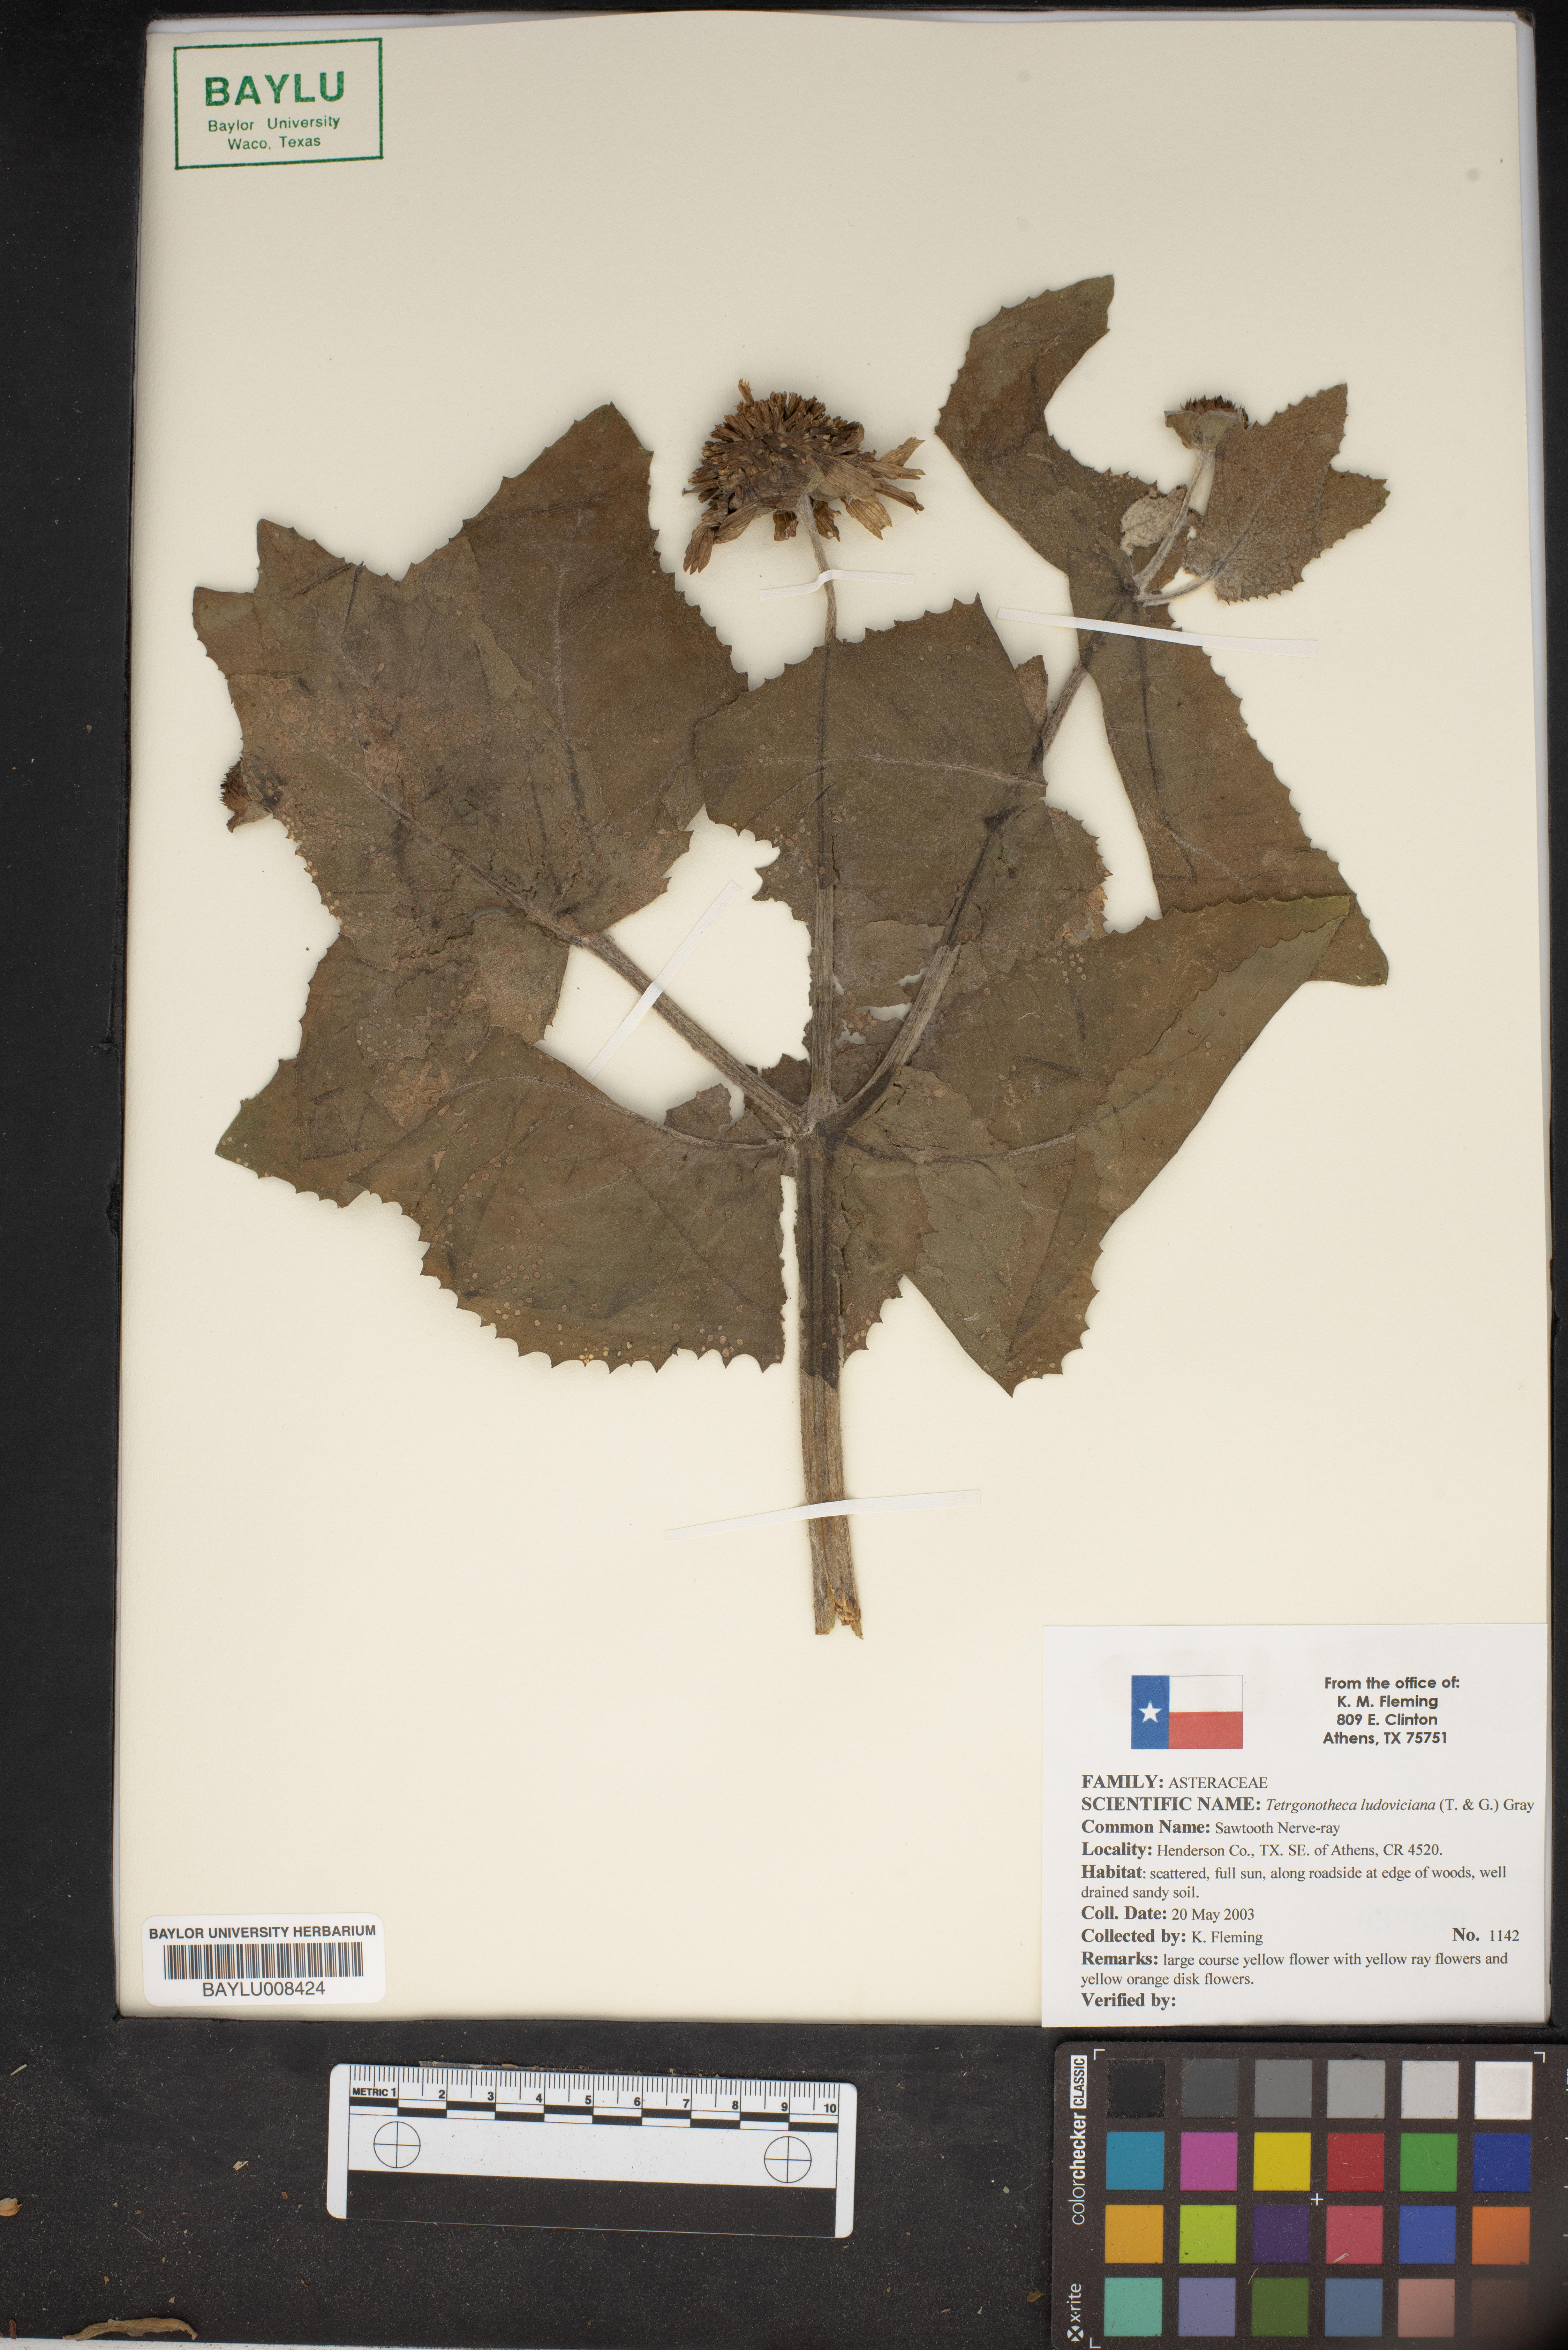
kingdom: Plantae
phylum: Tracheophyta
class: Magnoliopsida
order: Asterales
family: Asteraceae
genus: Tetragonotheca
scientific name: Tetragonotheca ludoviciana
